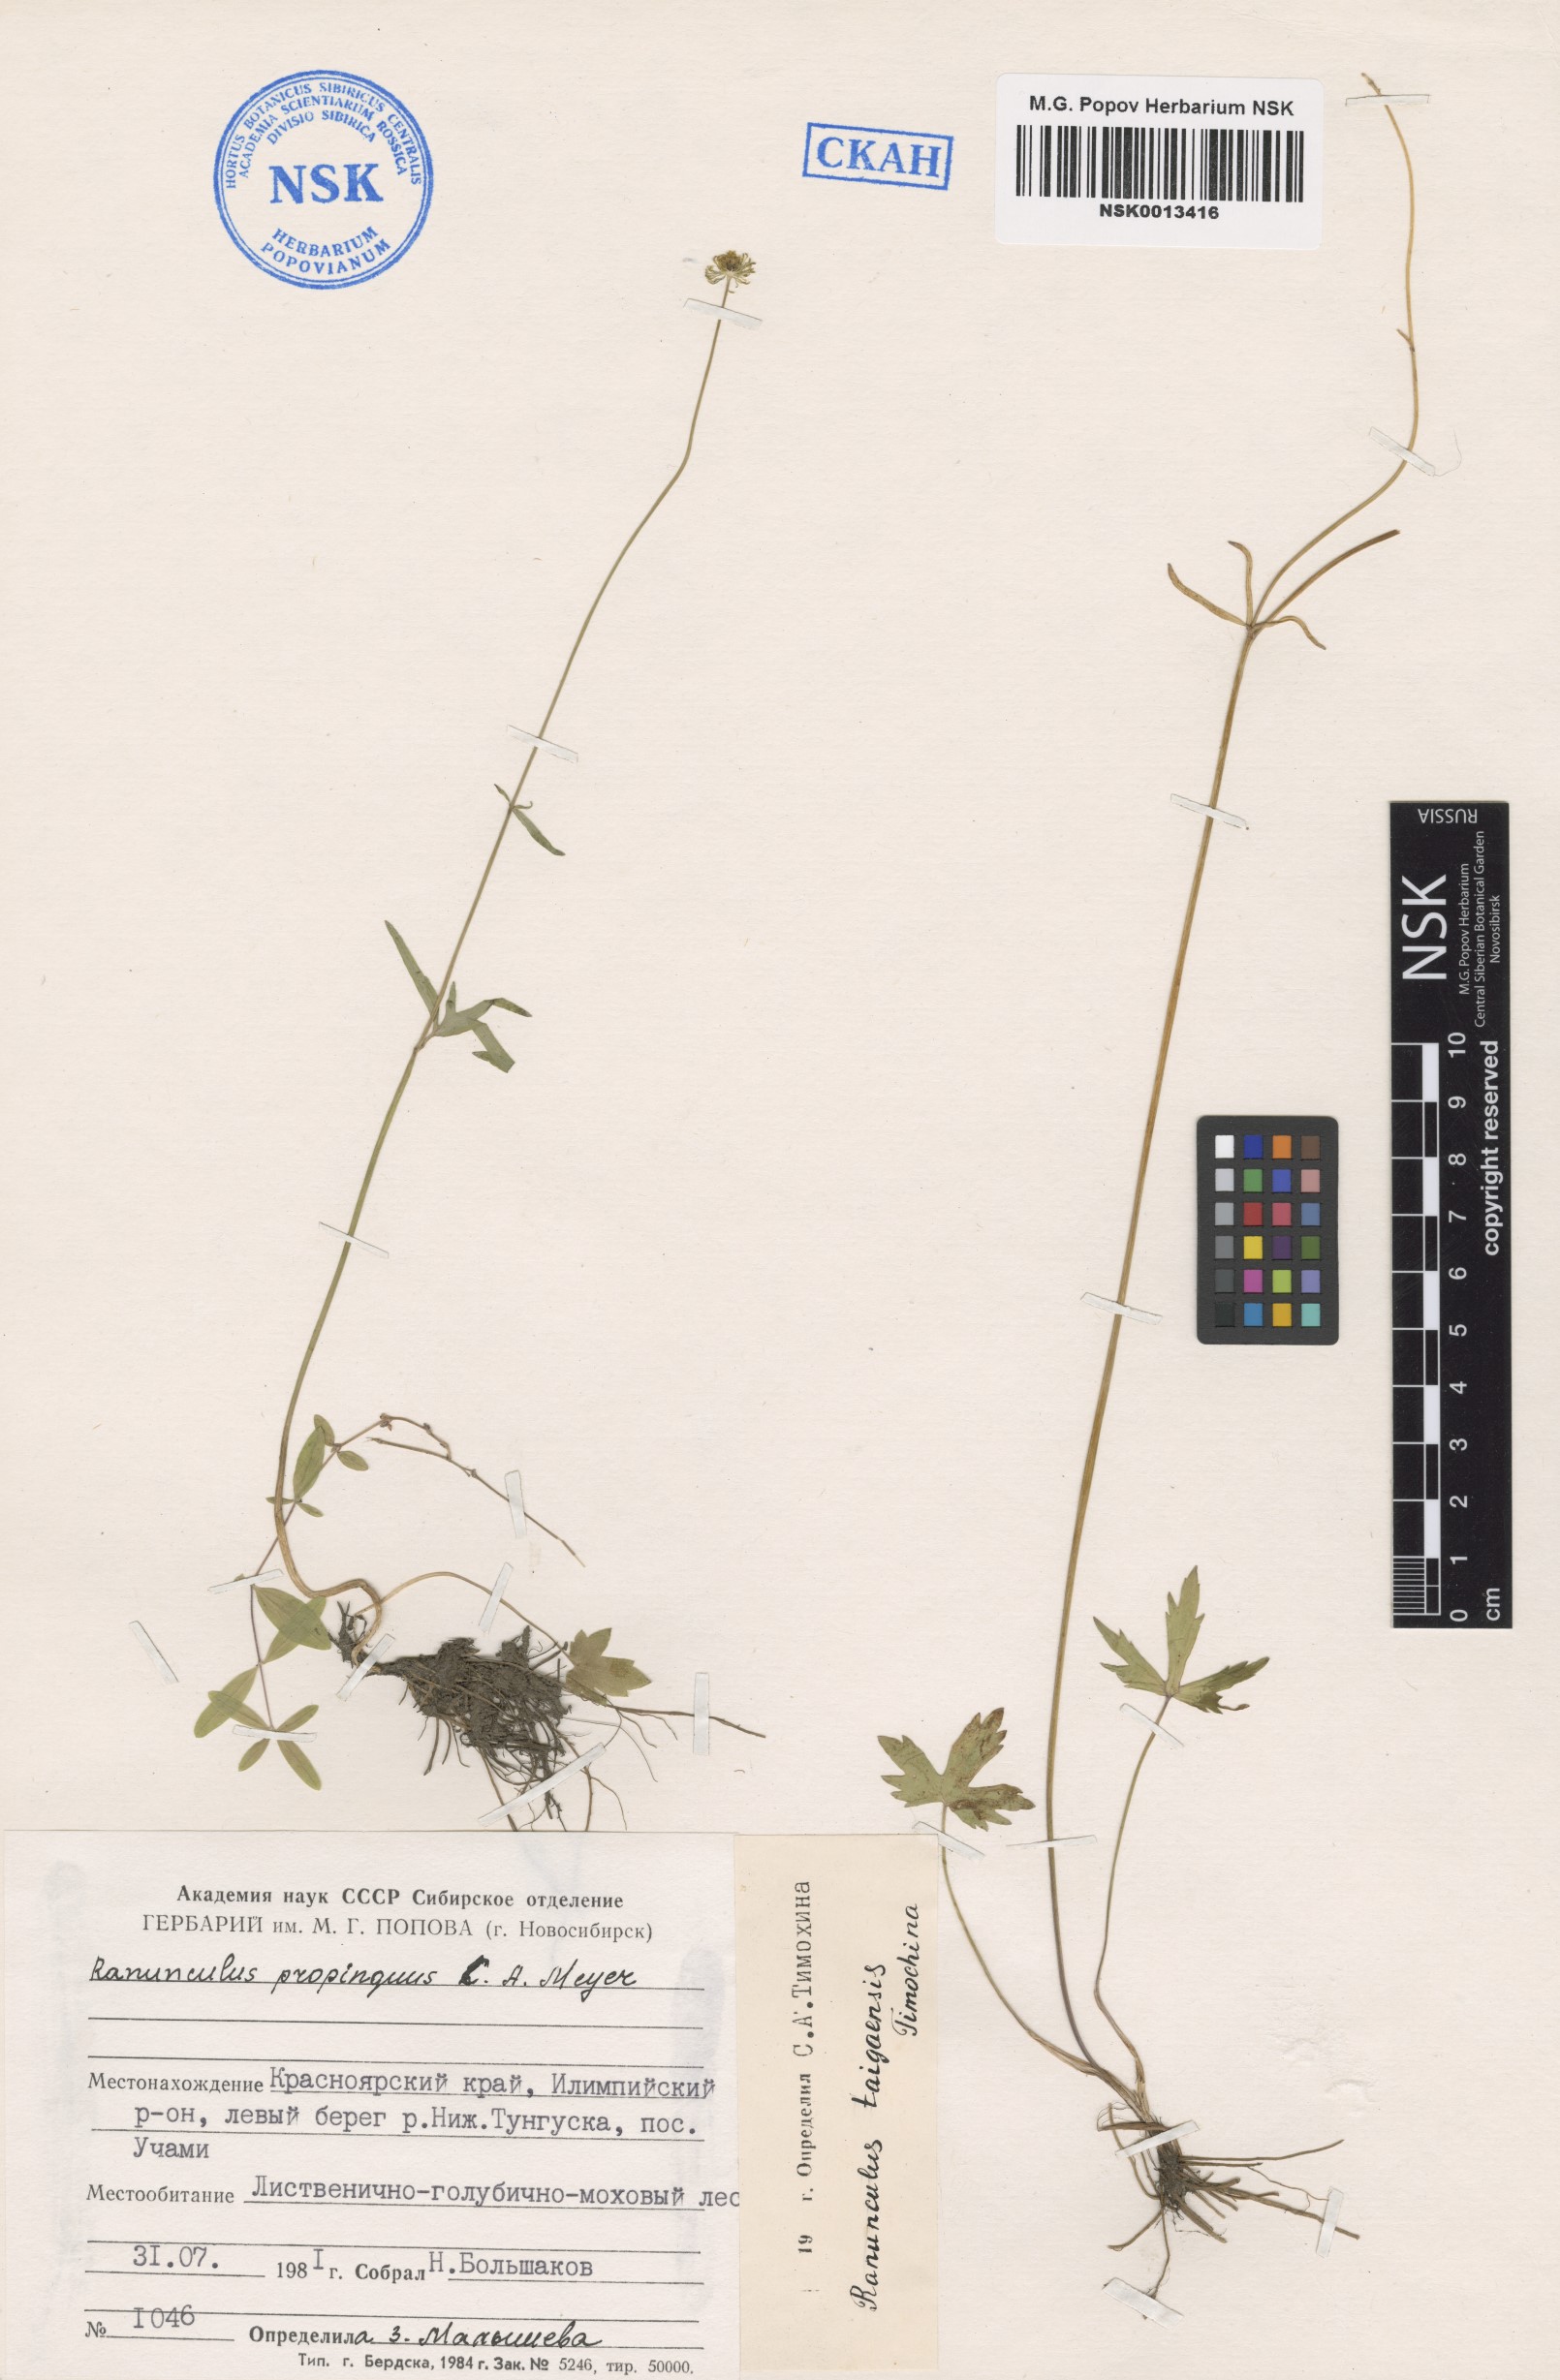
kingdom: Plantae
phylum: Tracheophyta
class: Magnoliopsida
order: Ranunculales
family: Ranunculaceae
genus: Ranunculus
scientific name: Ranunculus taigaensis
